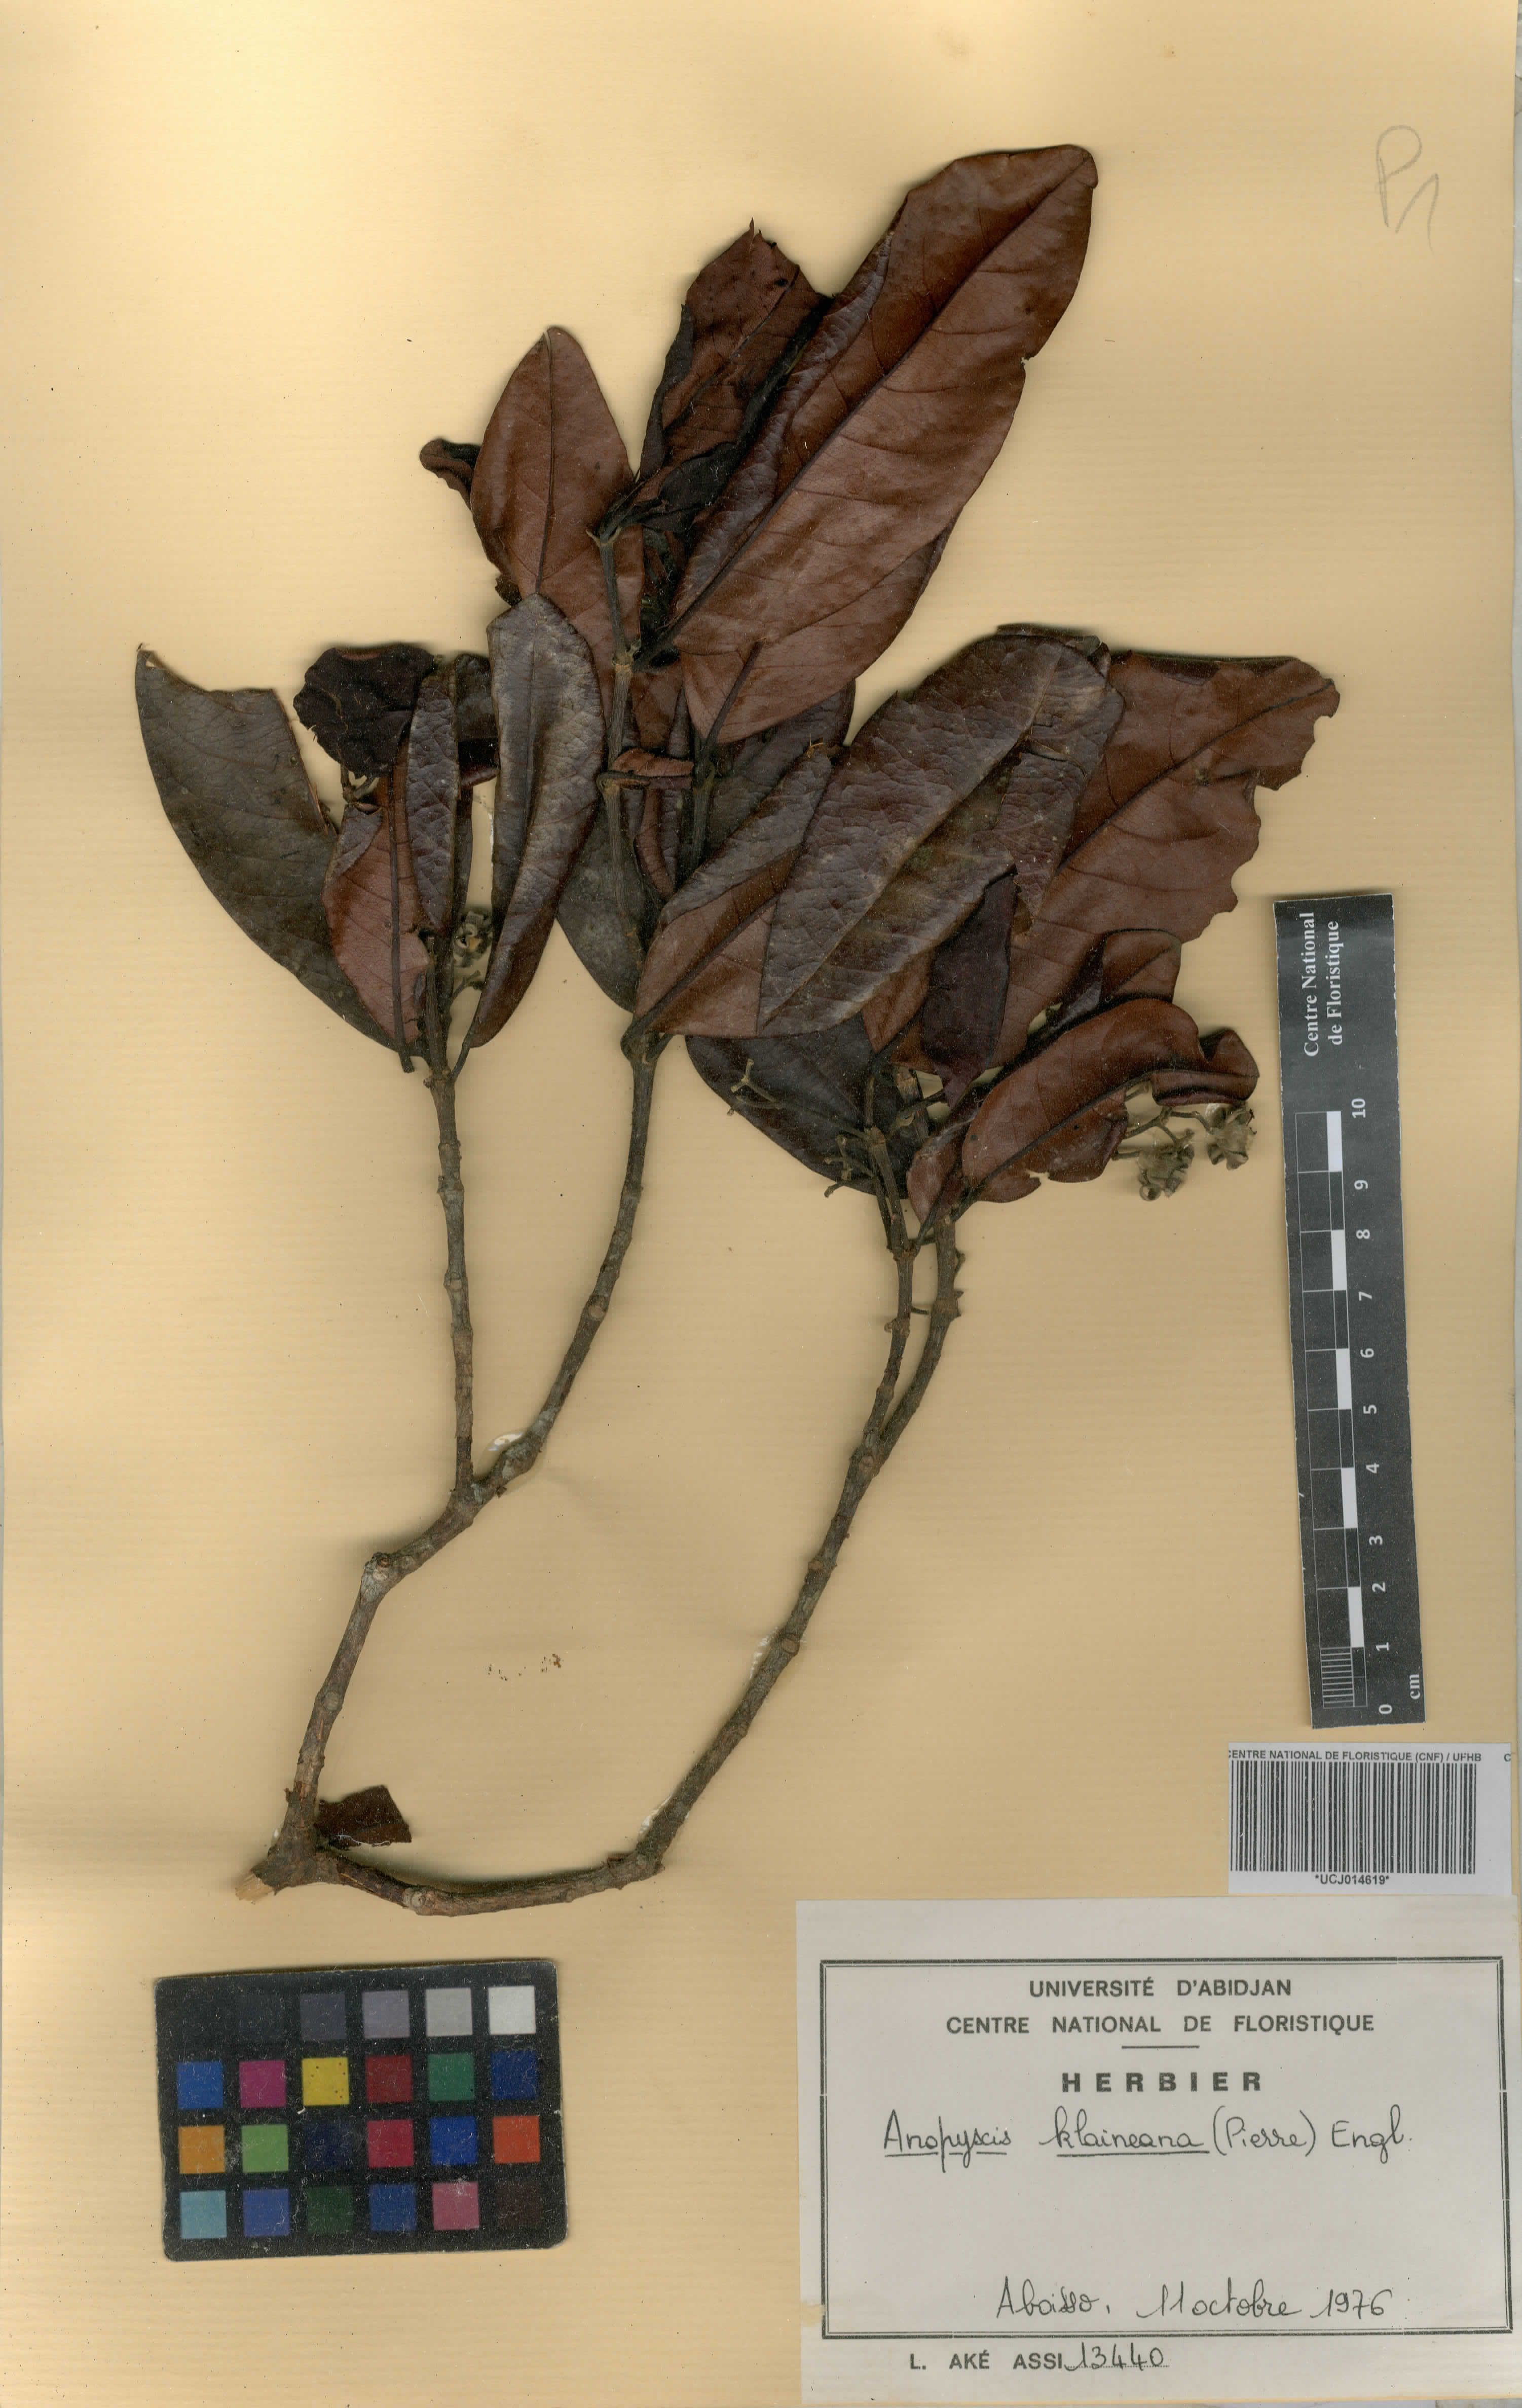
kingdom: Plantae
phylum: Tracheophyta
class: Magnoliopsida
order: Malpighiales
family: Rhizophoraceae
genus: Anopyxis
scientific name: Anopyxis klaineana
